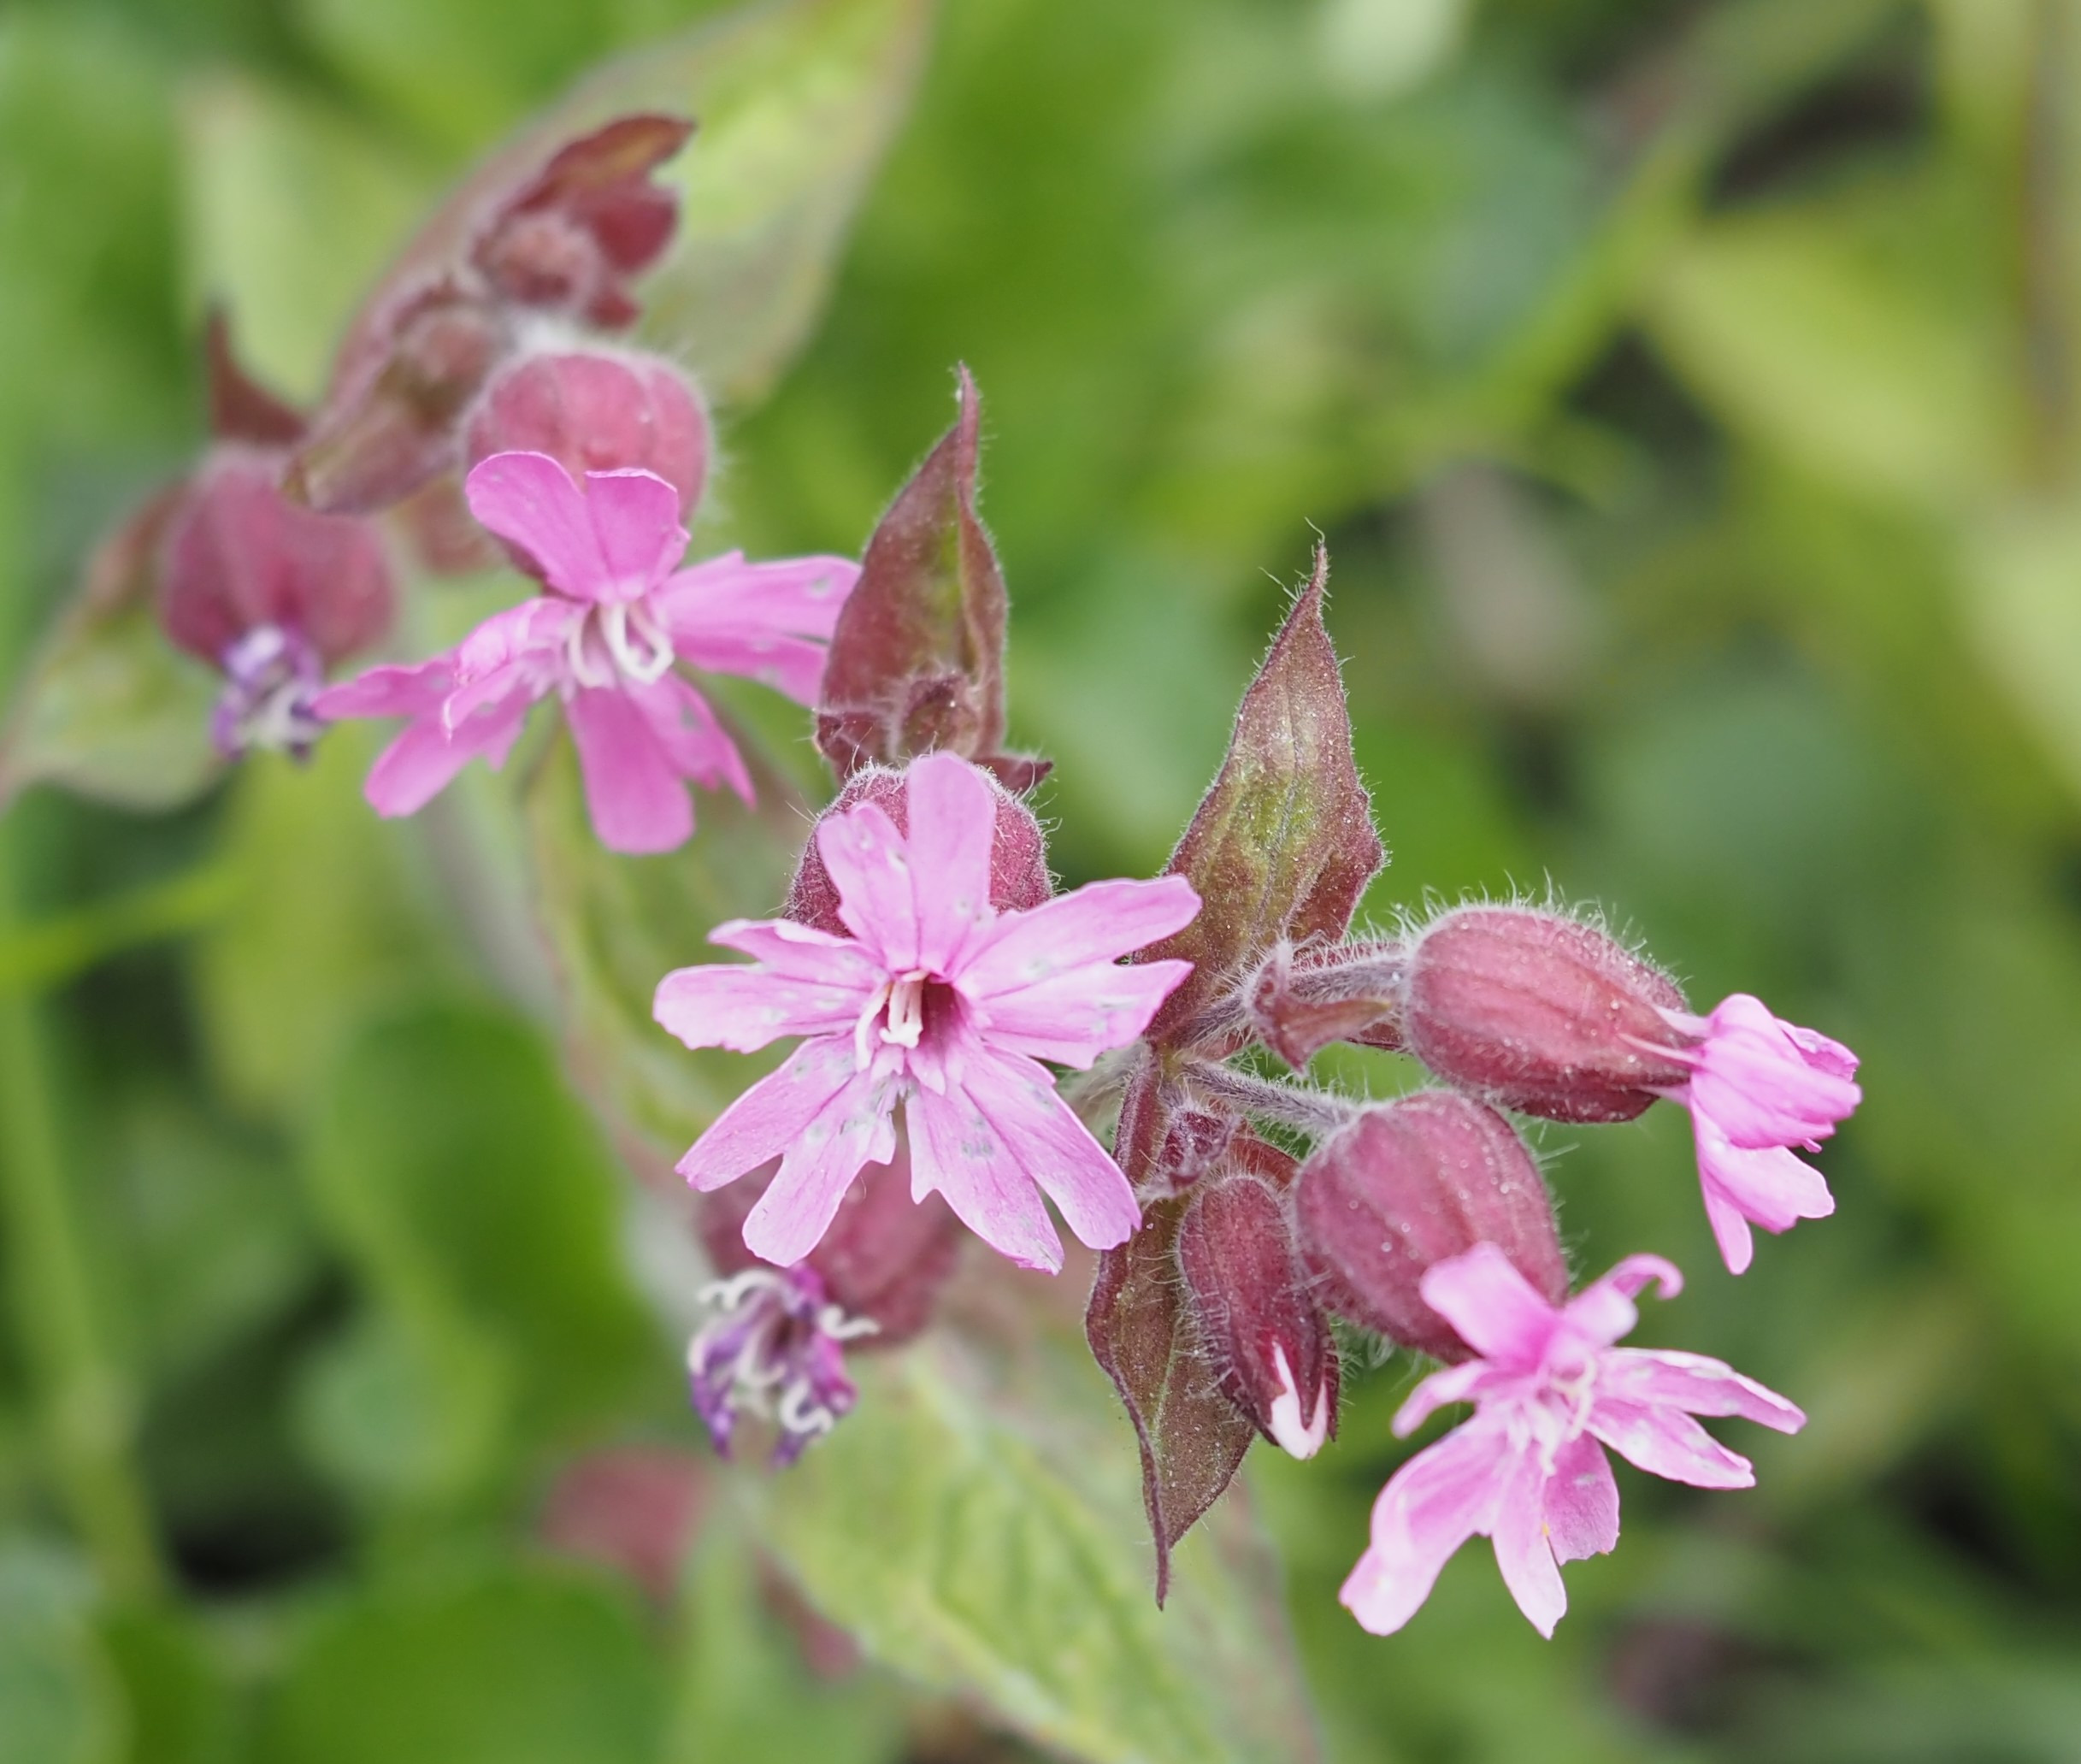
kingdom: Plantae
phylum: Tracheophyta
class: Magnoliopsida
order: Caryophyllales
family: Caryophyllaceae
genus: Silene
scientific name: Silene dioica
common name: Dagpragtstjerne
